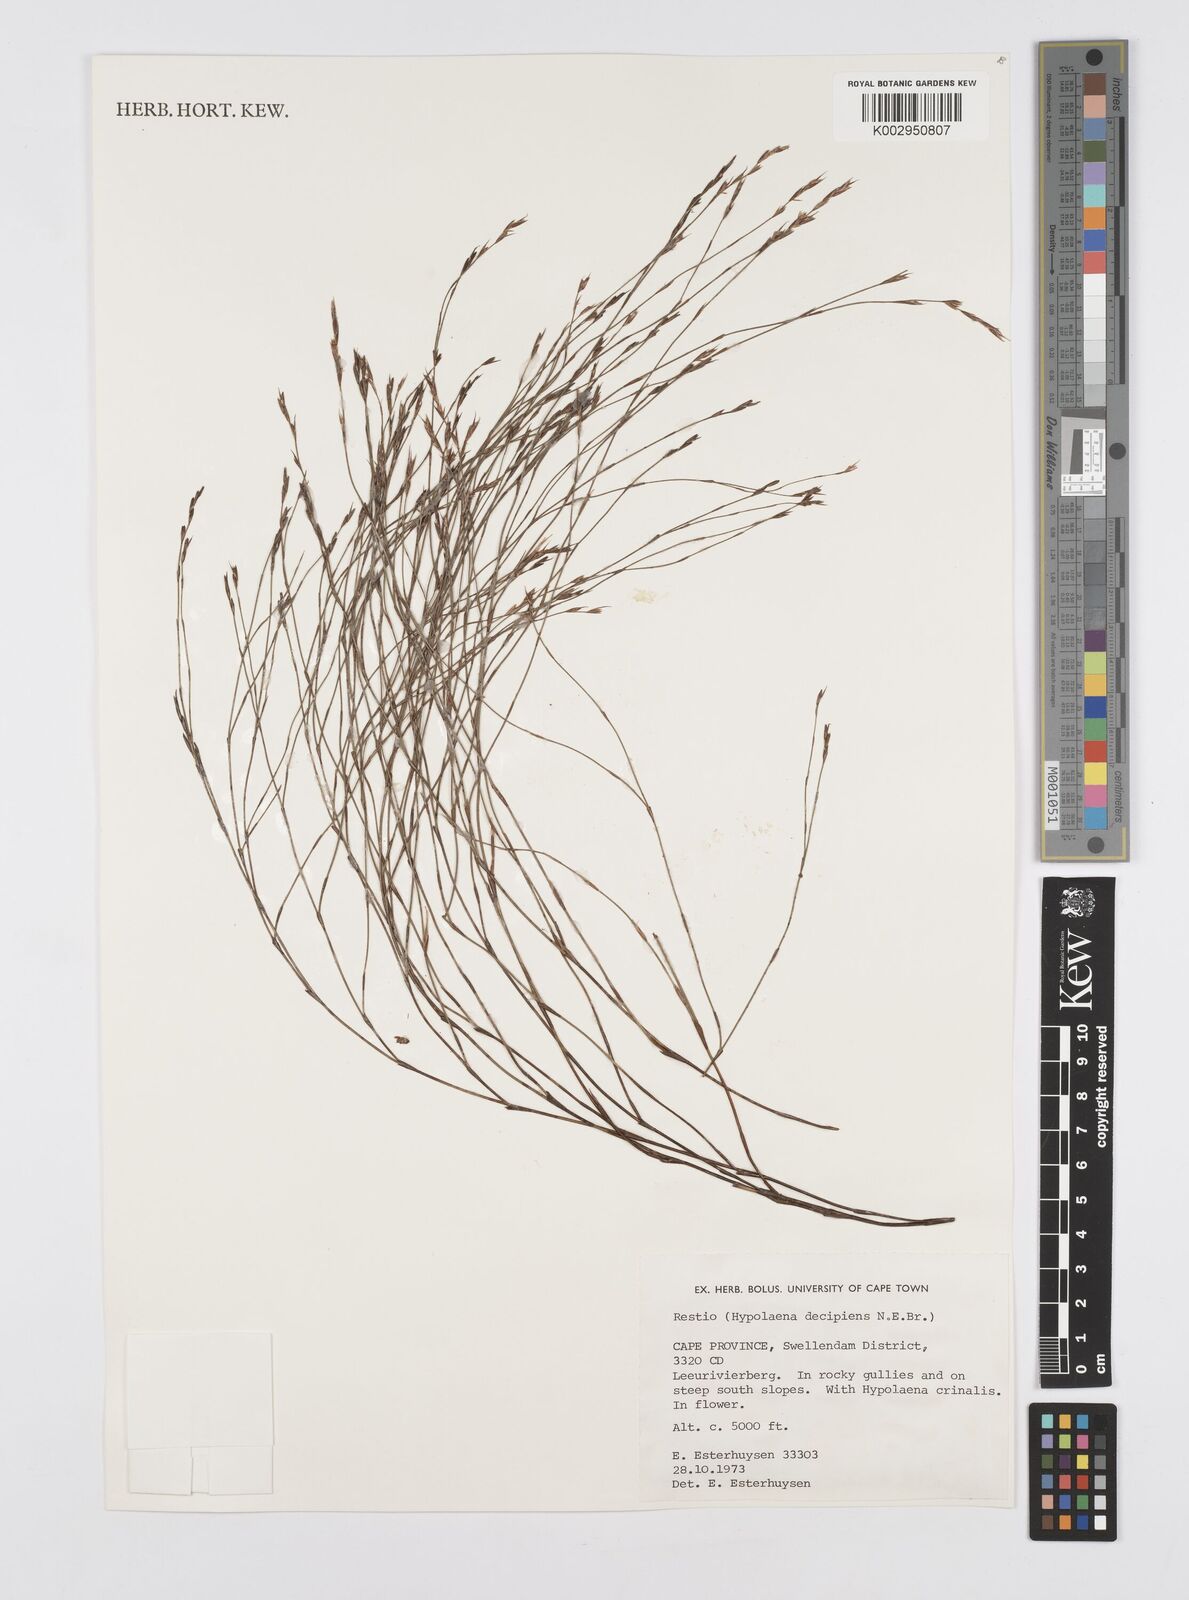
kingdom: Plantae
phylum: Tracheophyta
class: Liliopsida
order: Poales
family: Restionaceae
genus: Restio
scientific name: Restio decipiens
